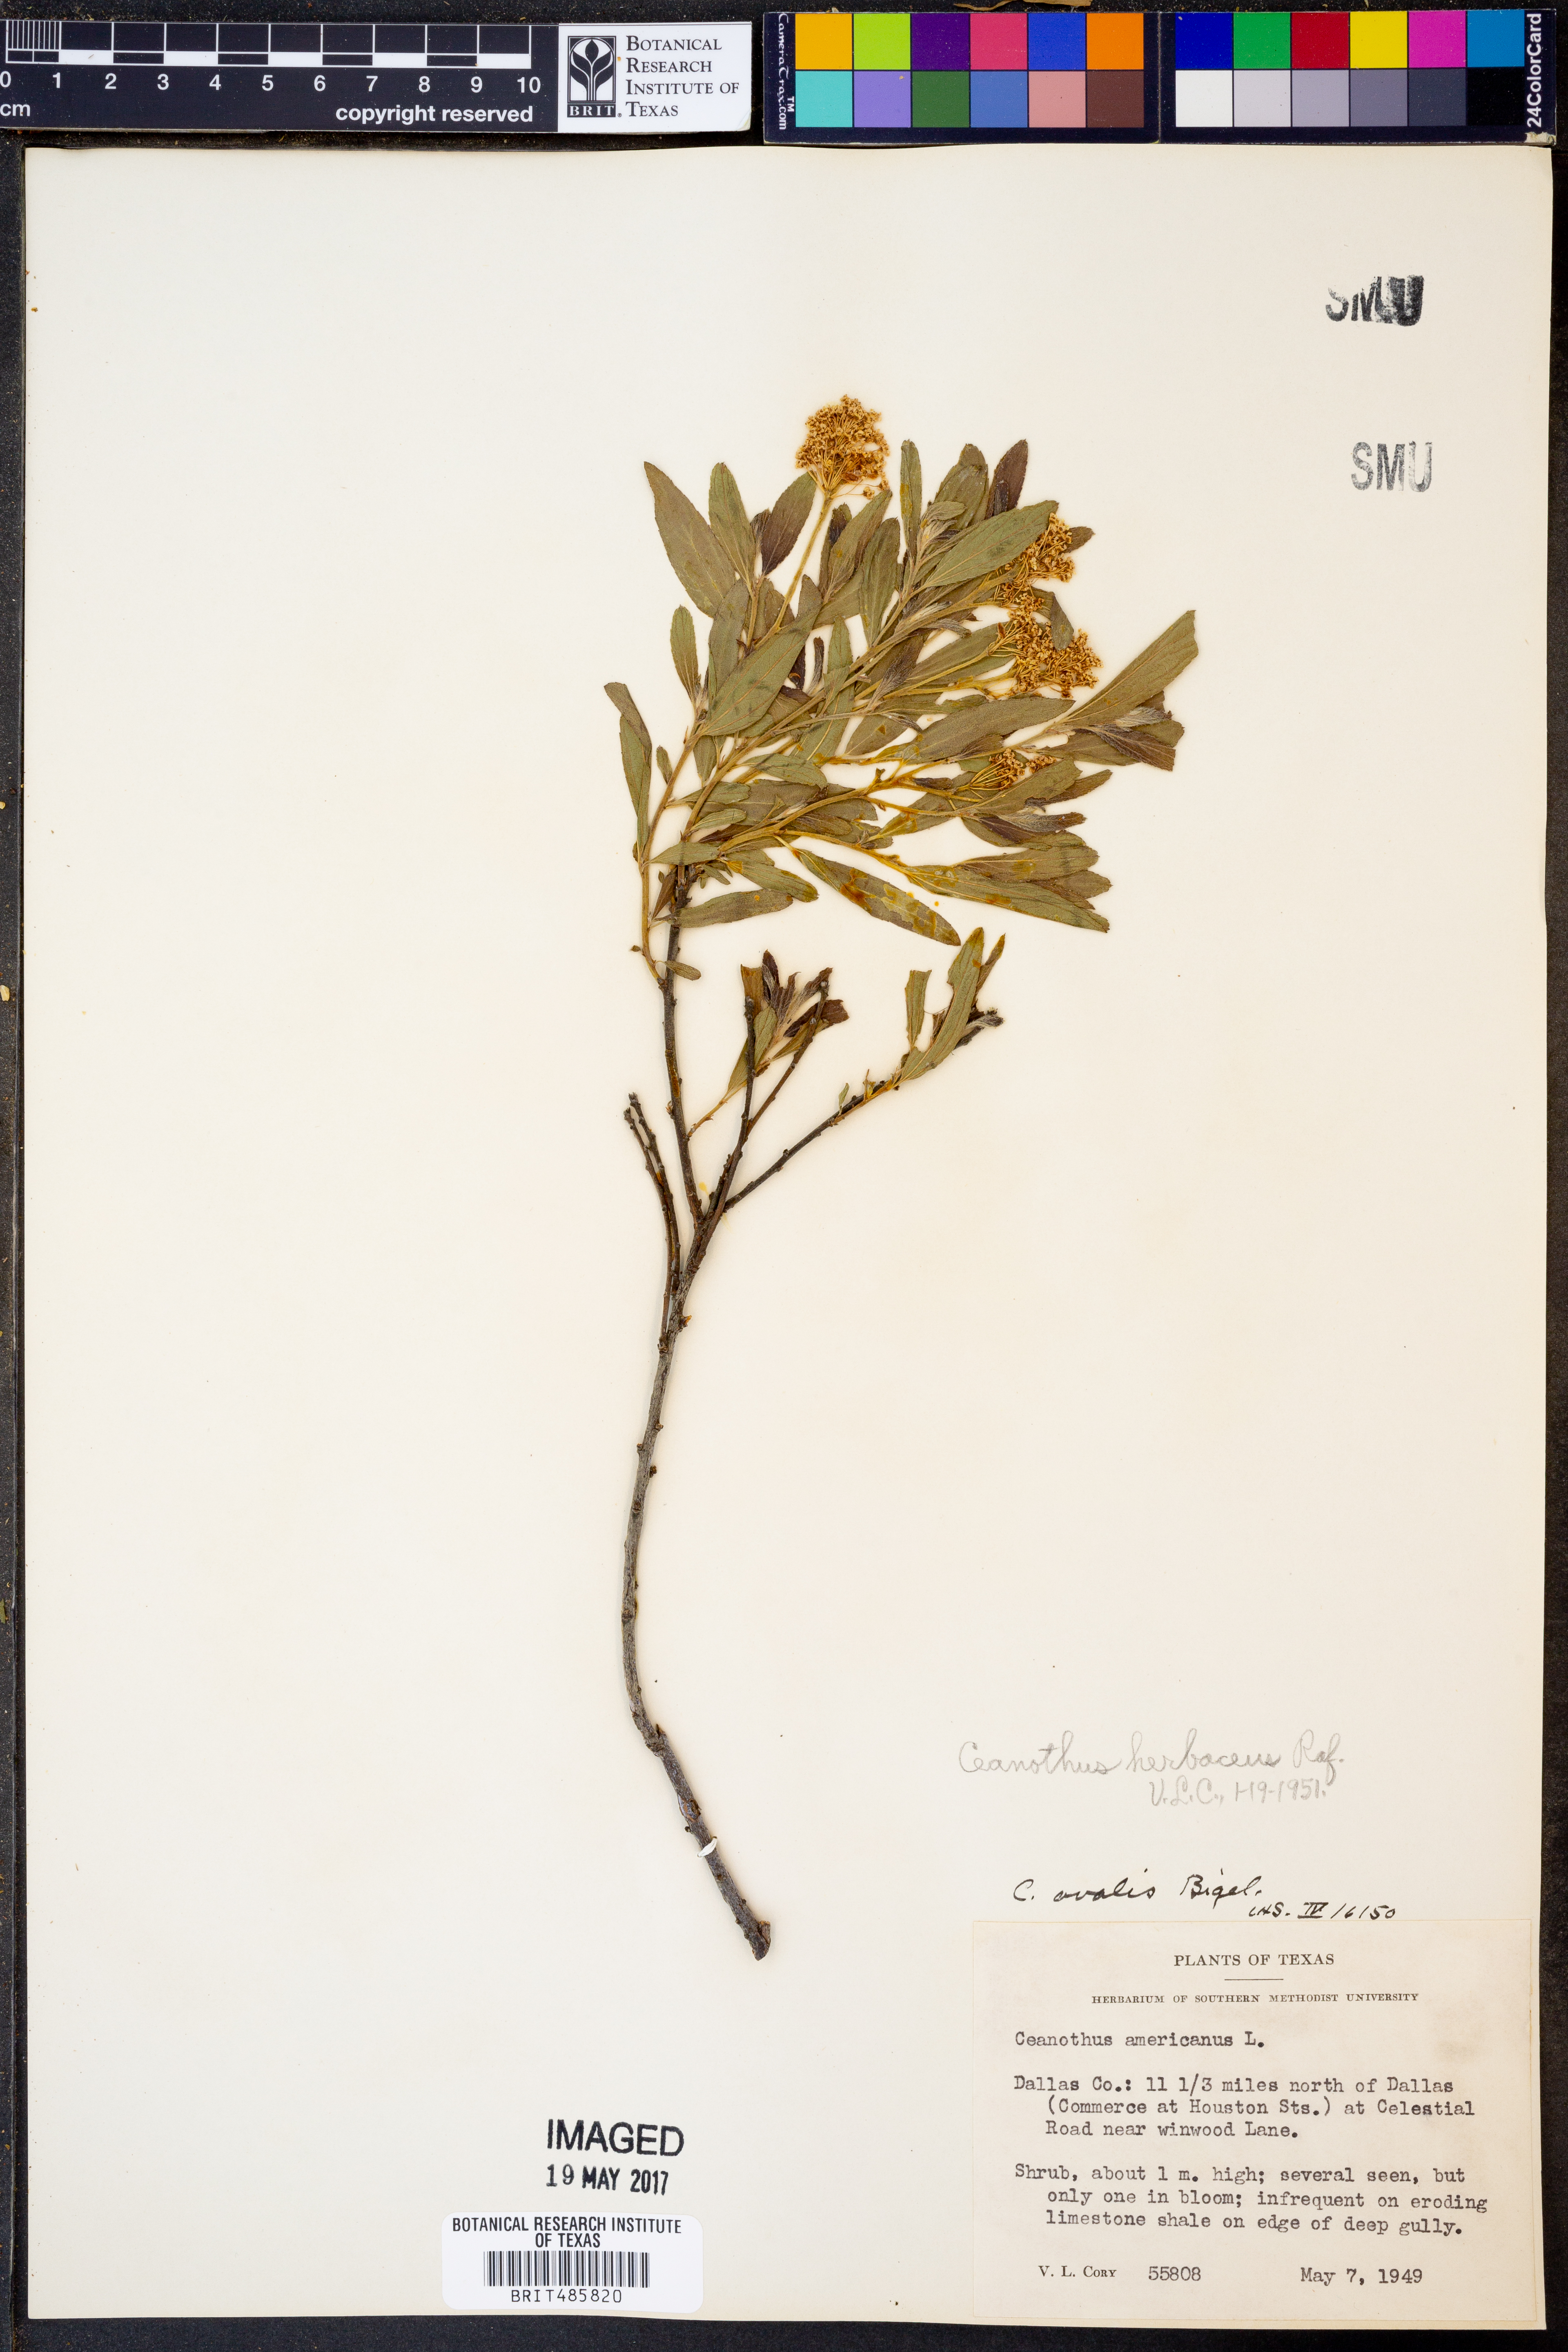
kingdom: Plantae
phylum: Tracheophyta
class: Magnoliopsida
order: Rosales
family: Rhamnaceae
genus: Ceanothus
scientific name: Ceanothus herbaceus
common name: Inland ceanothus
